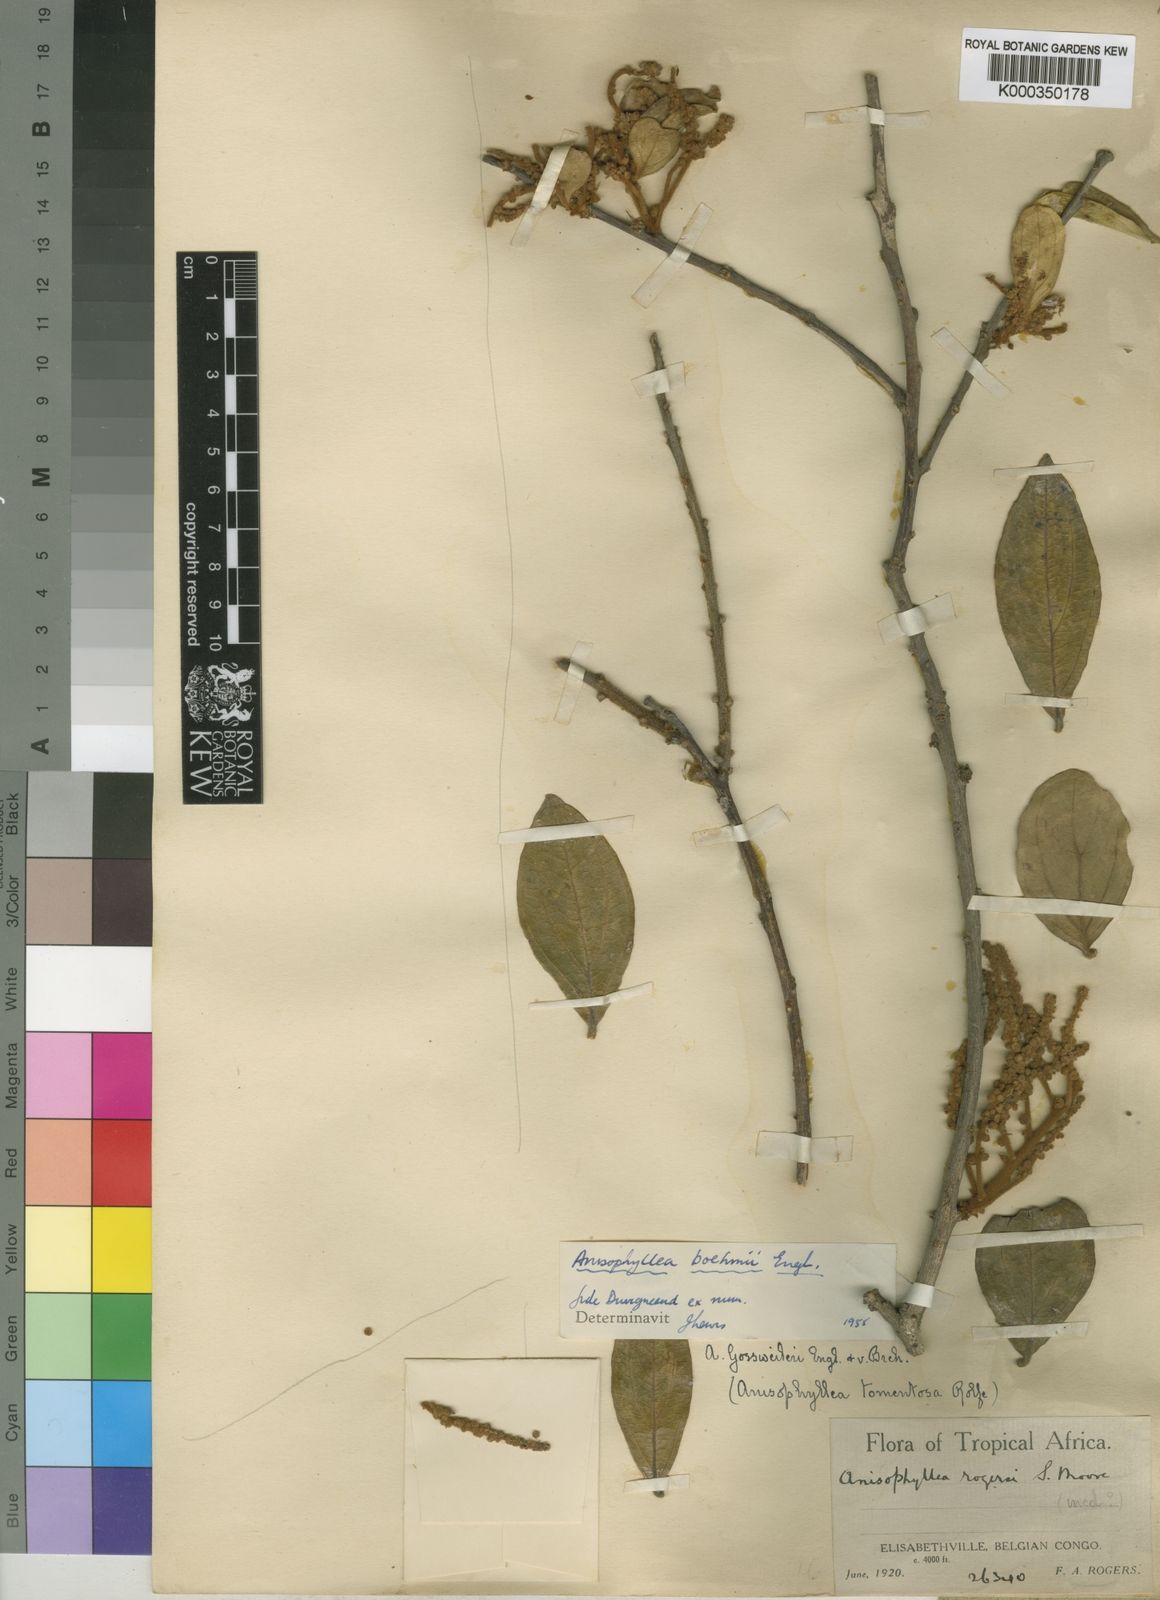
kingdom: Plantae
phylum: Tracheophyta
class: Magnoliopsida
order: Cucurbitales
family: Anisophylleaceae
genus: Anisophyllea
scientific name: Anisophyllea boehmii
